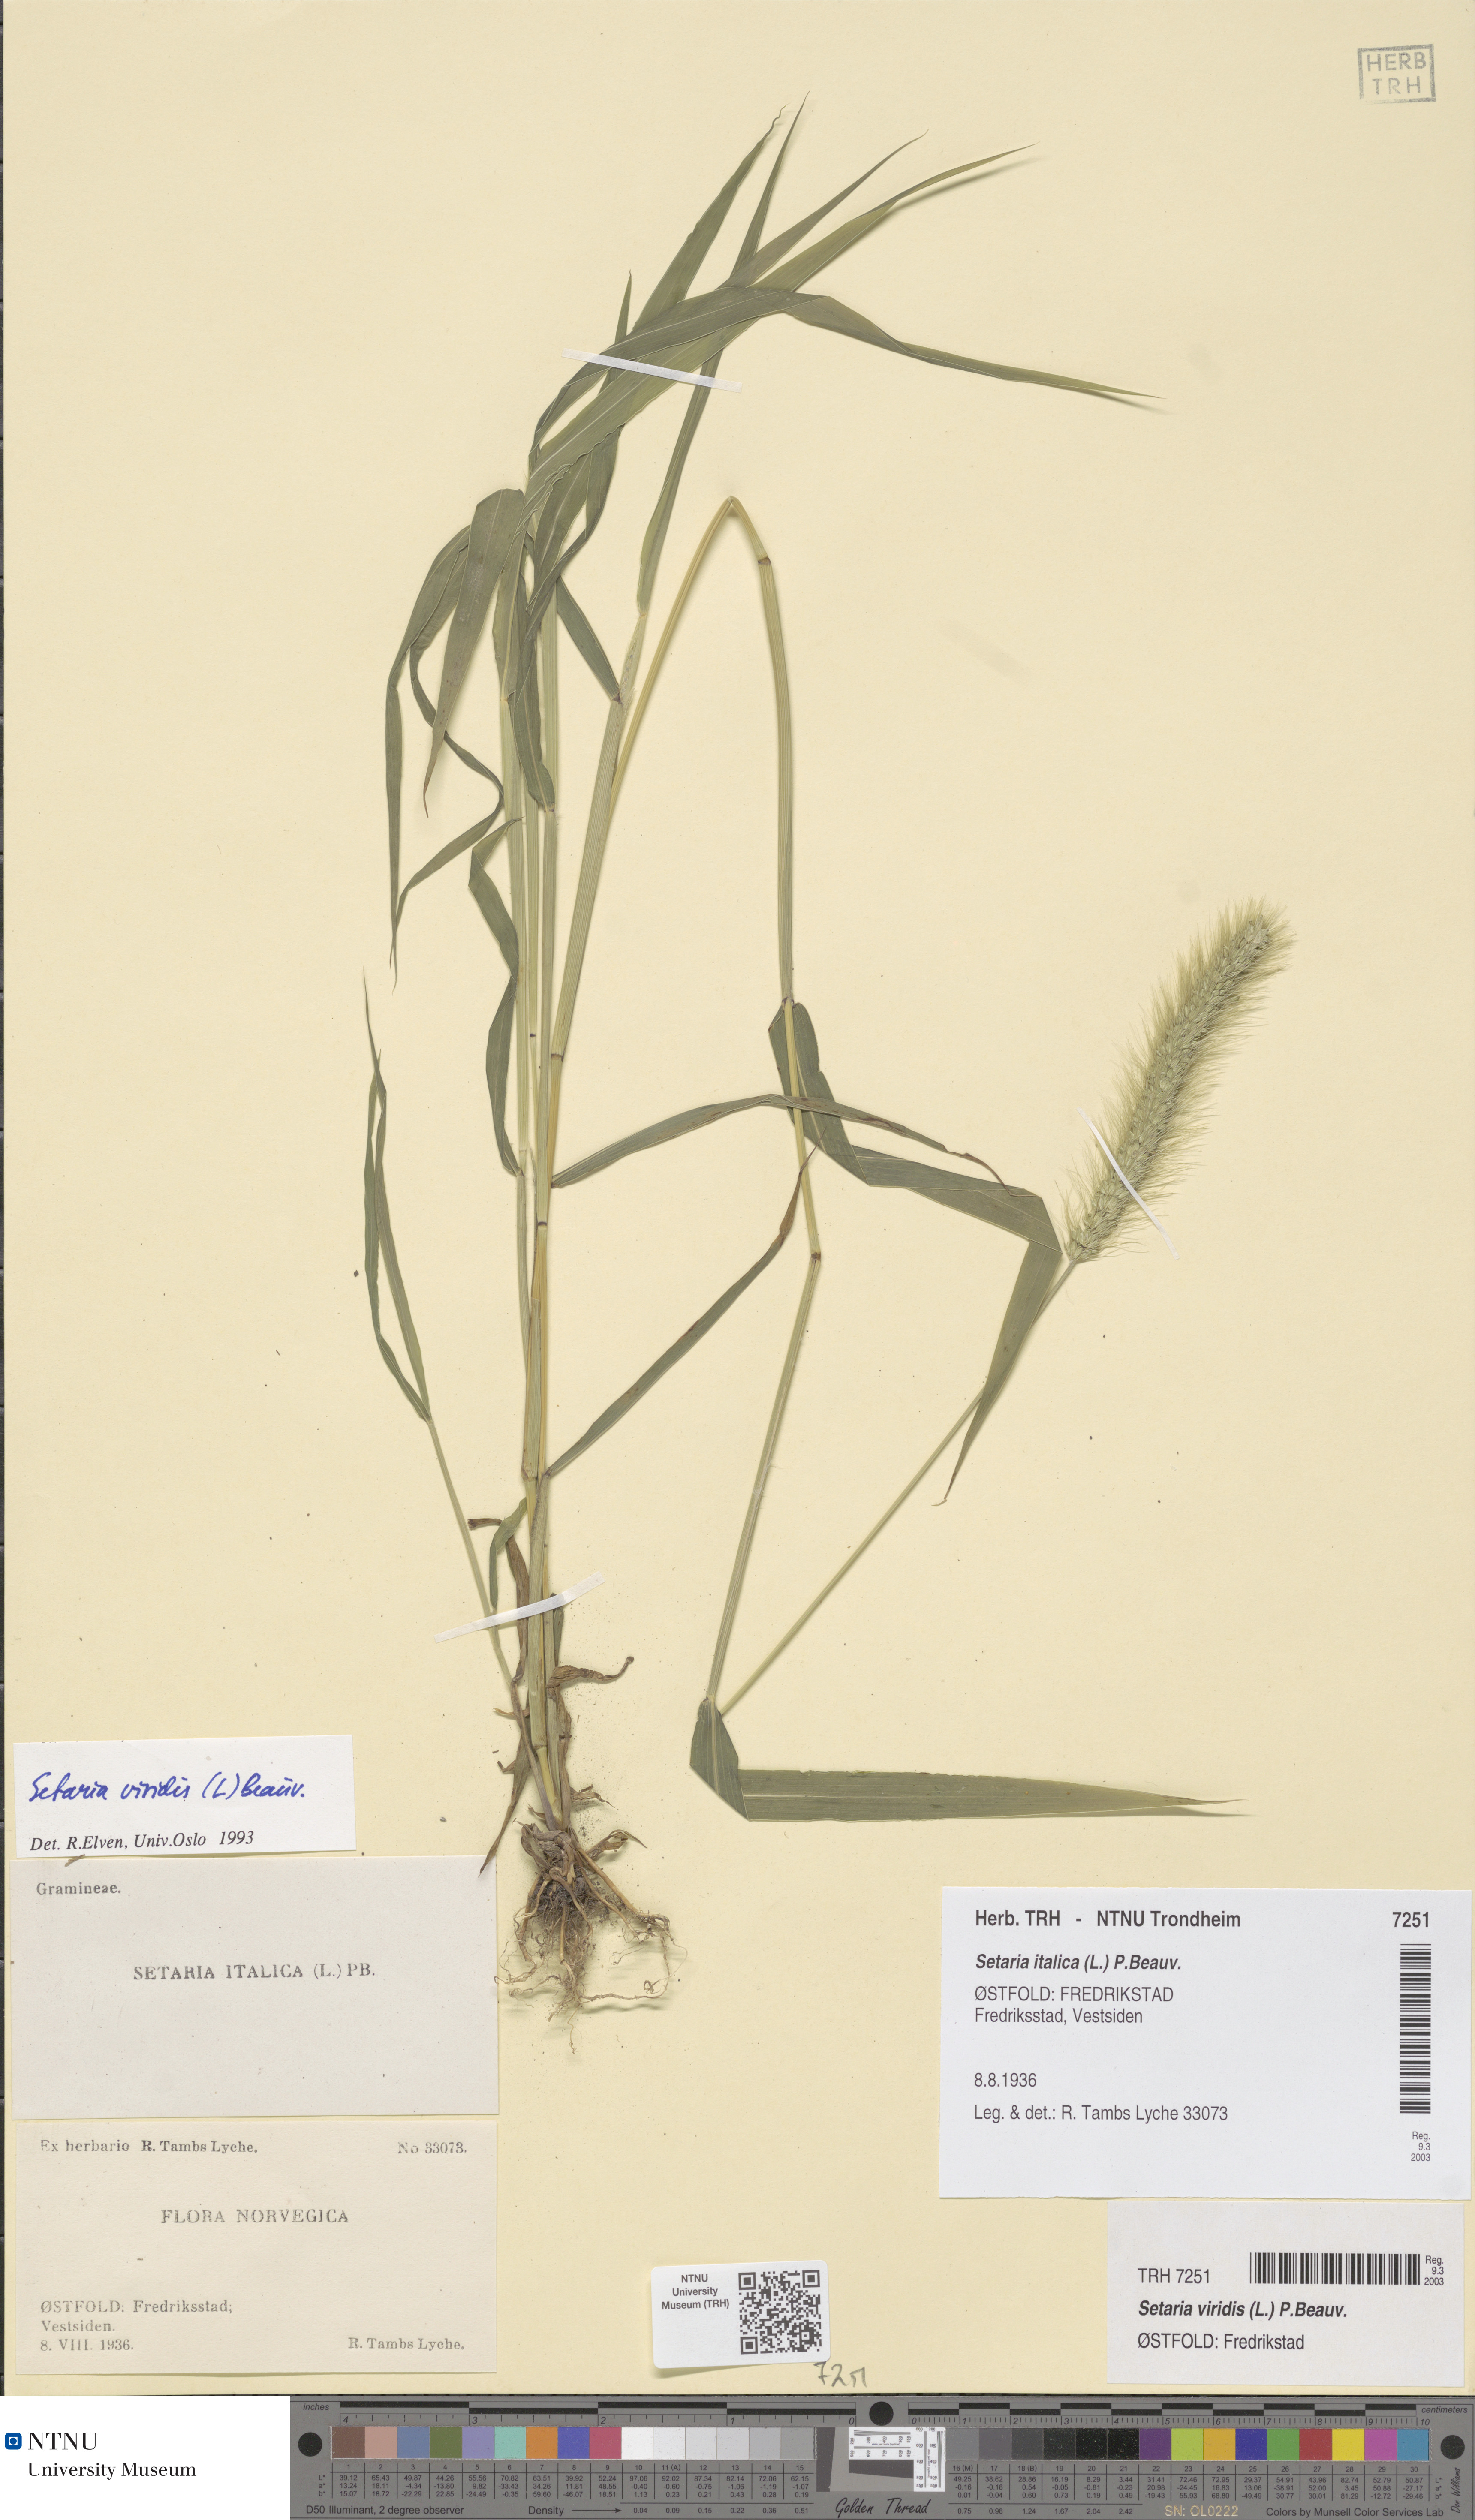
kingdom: Plantae
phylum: Tracheophyta
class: Liliopsida
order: Poales
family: Poaceae
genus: Setaria
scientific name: Setaria viridis
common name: Green bristlegrass
